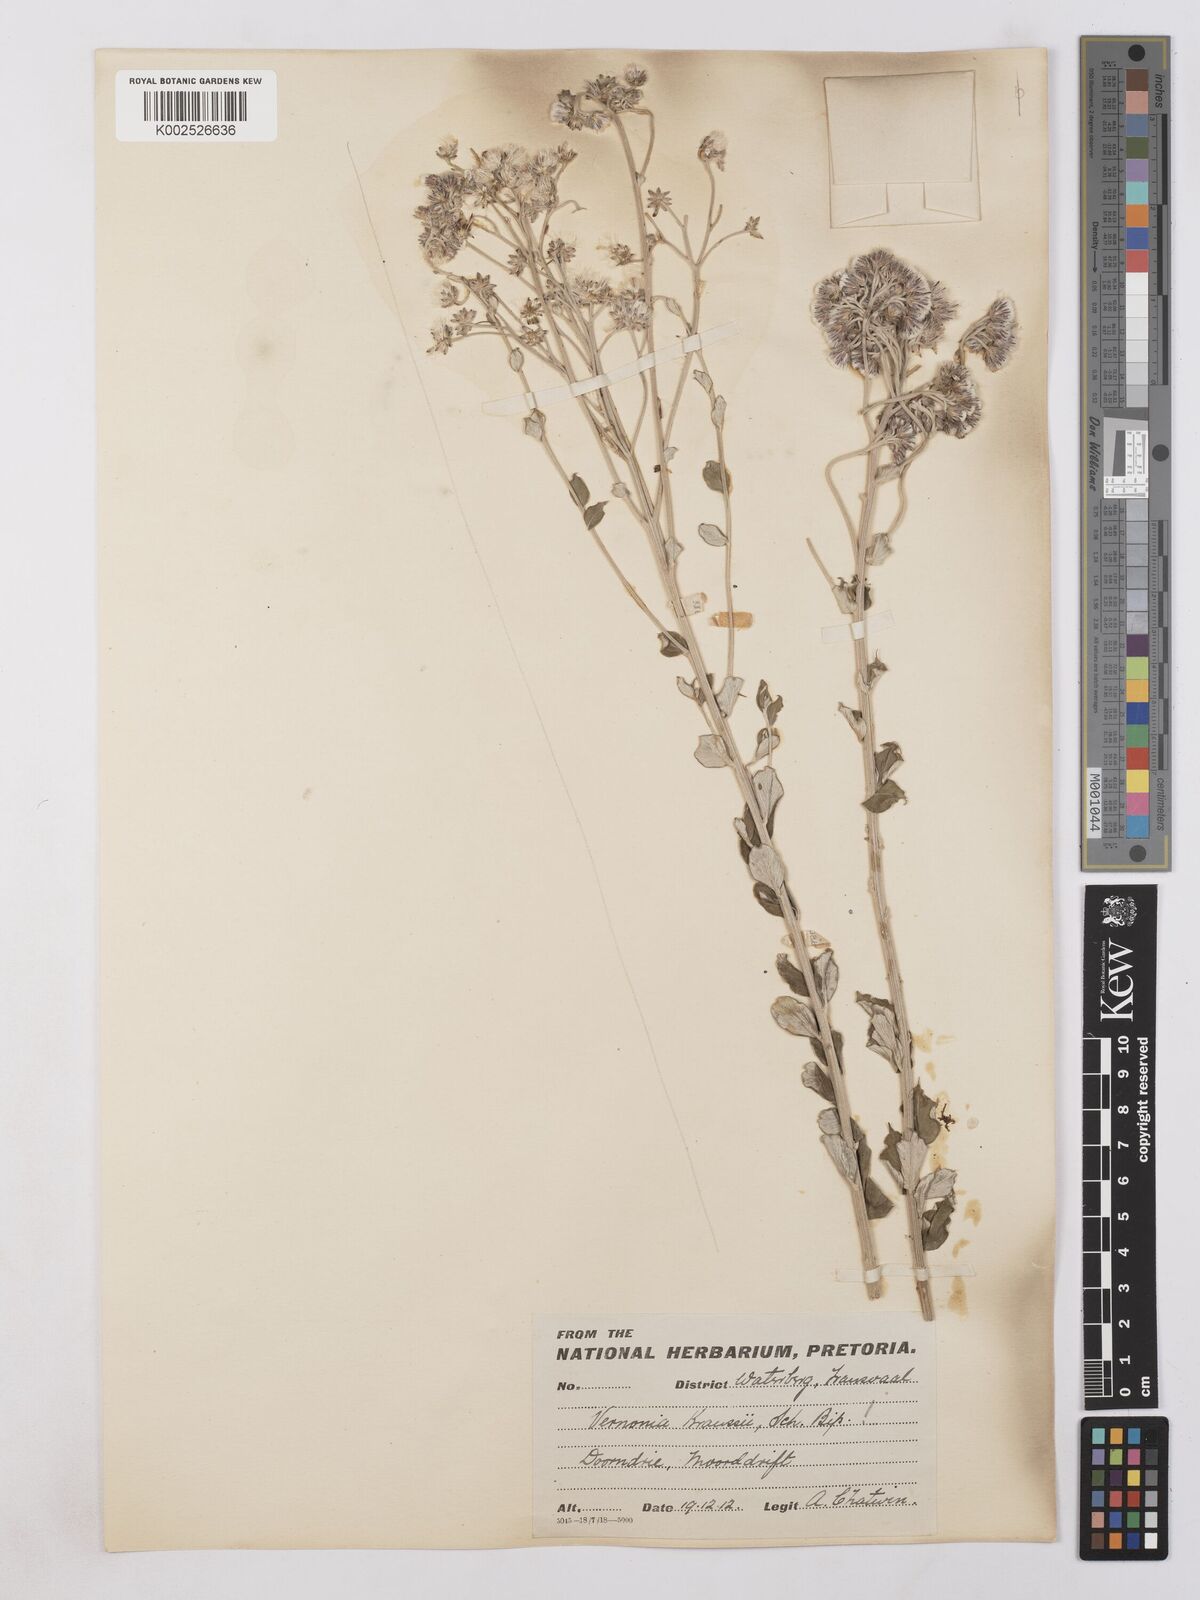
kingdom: Plantae
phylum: Tracheophyta
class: Magnoliopsida
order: Asterales
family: Asteraceae
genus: Hilliardiella
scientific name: Hilliardiella oligocephala
